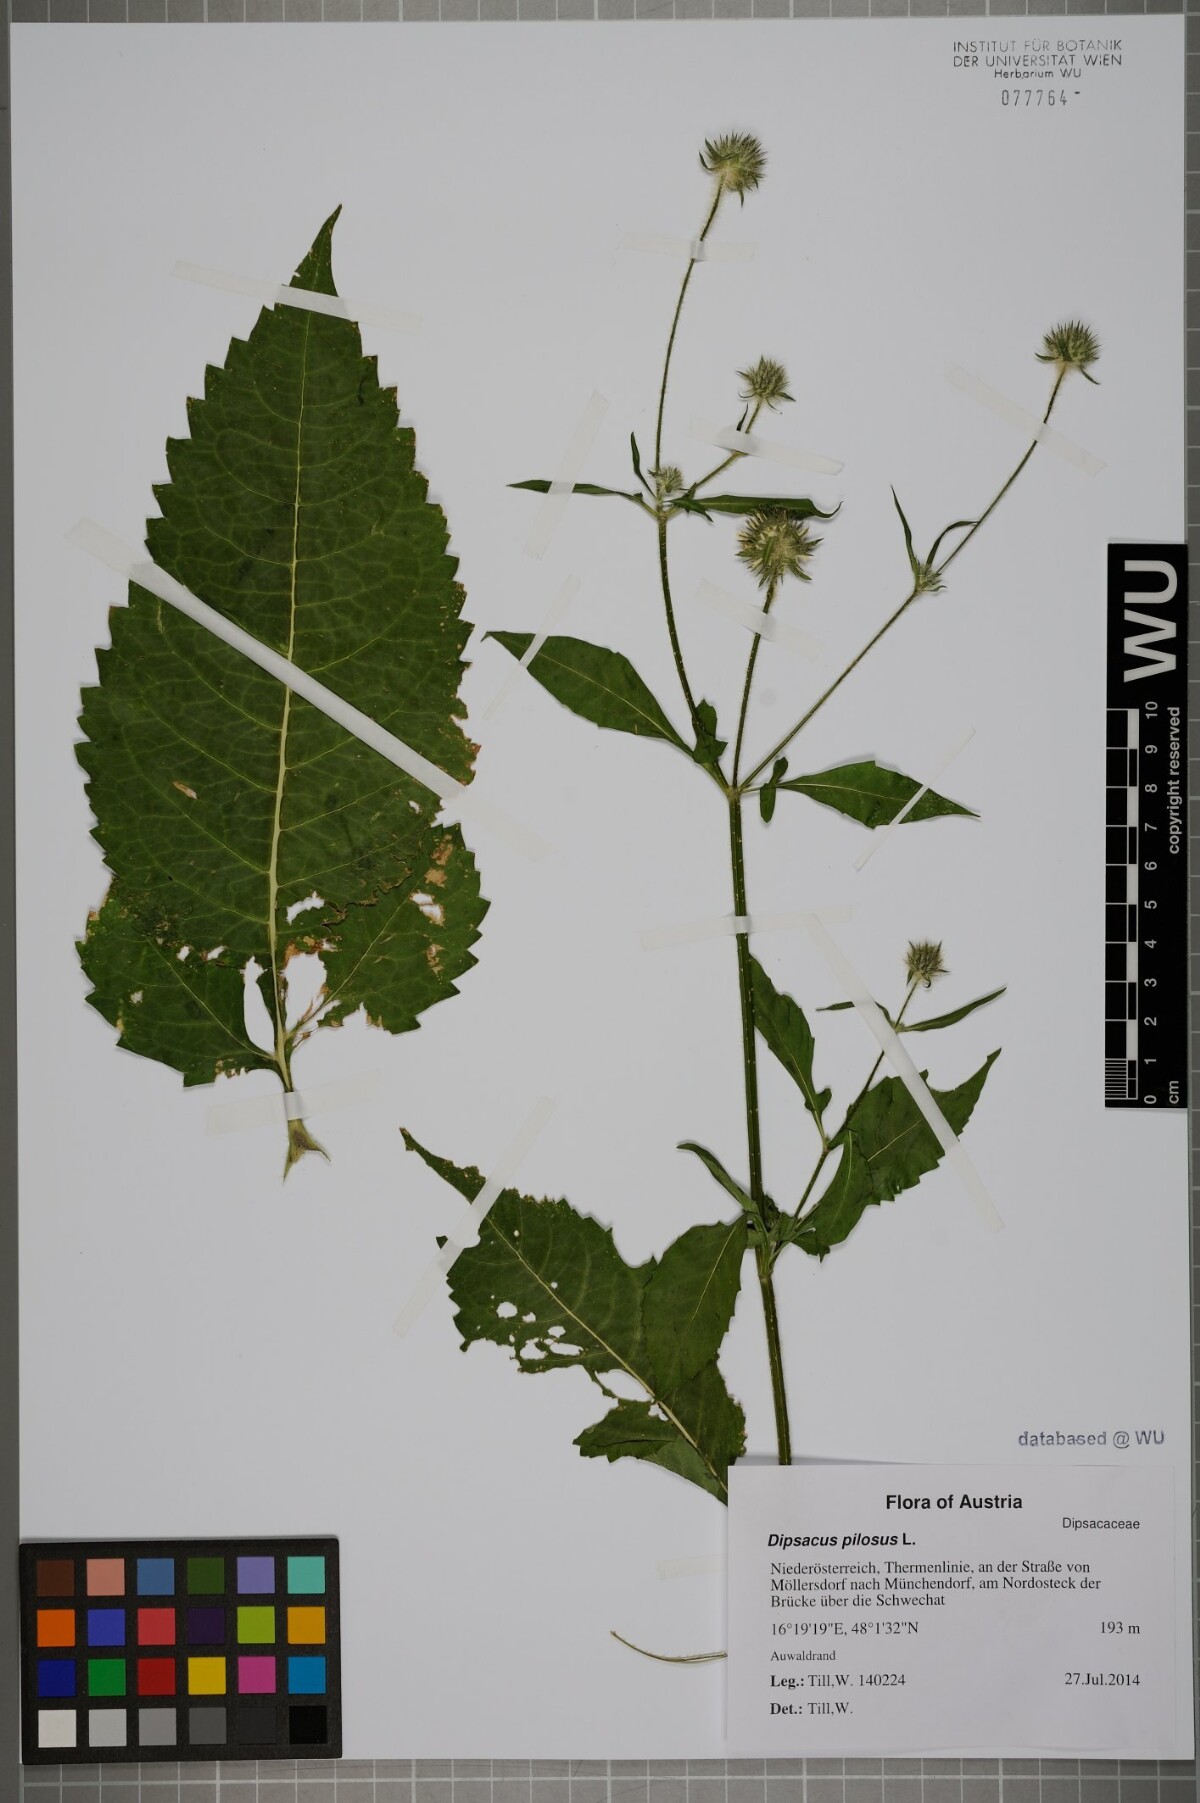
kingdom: Plantae
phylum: Tracheophyta
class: Magnoliopsida
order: Dipsacales
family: Caprifoliaceae
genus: Dipsacus
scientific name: Dipsacus pilosus
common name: Small teasel
